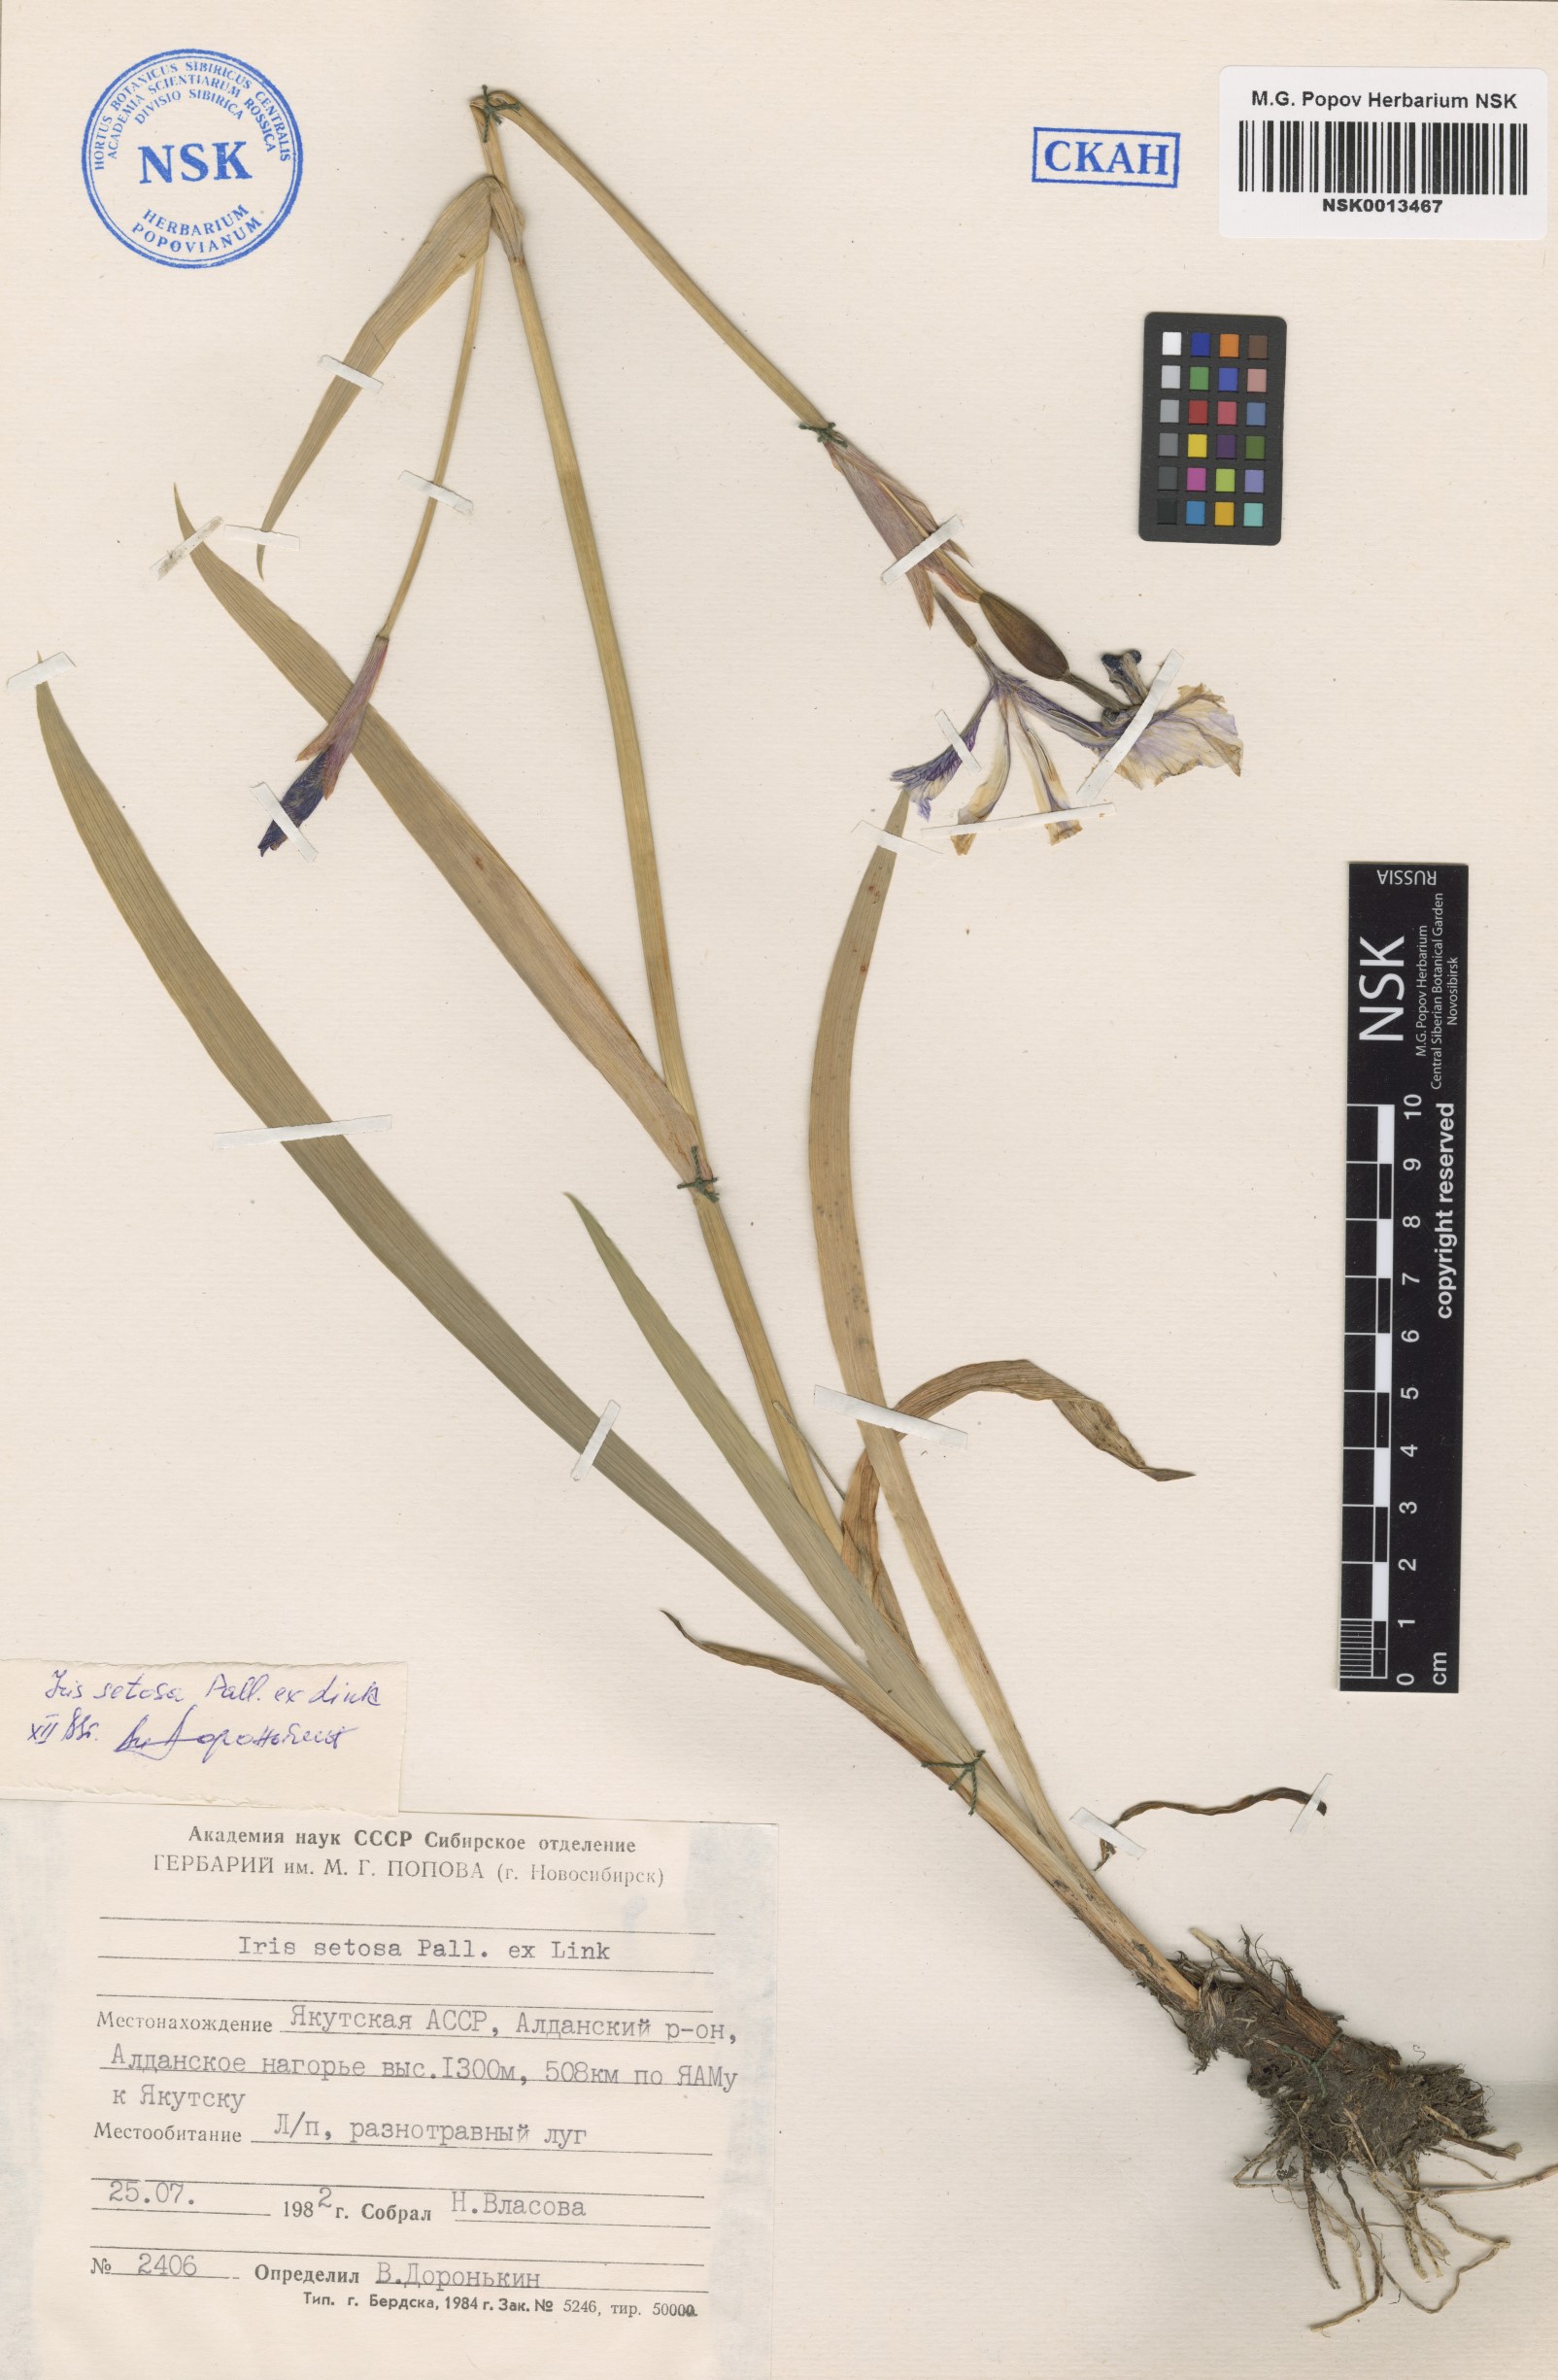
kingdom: Plantae
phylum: Tracheophyta
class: Liliopsida
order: Asparagales
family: Iridaceae
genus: Iris
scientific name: Iris setosa
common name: Arctic blue flag
